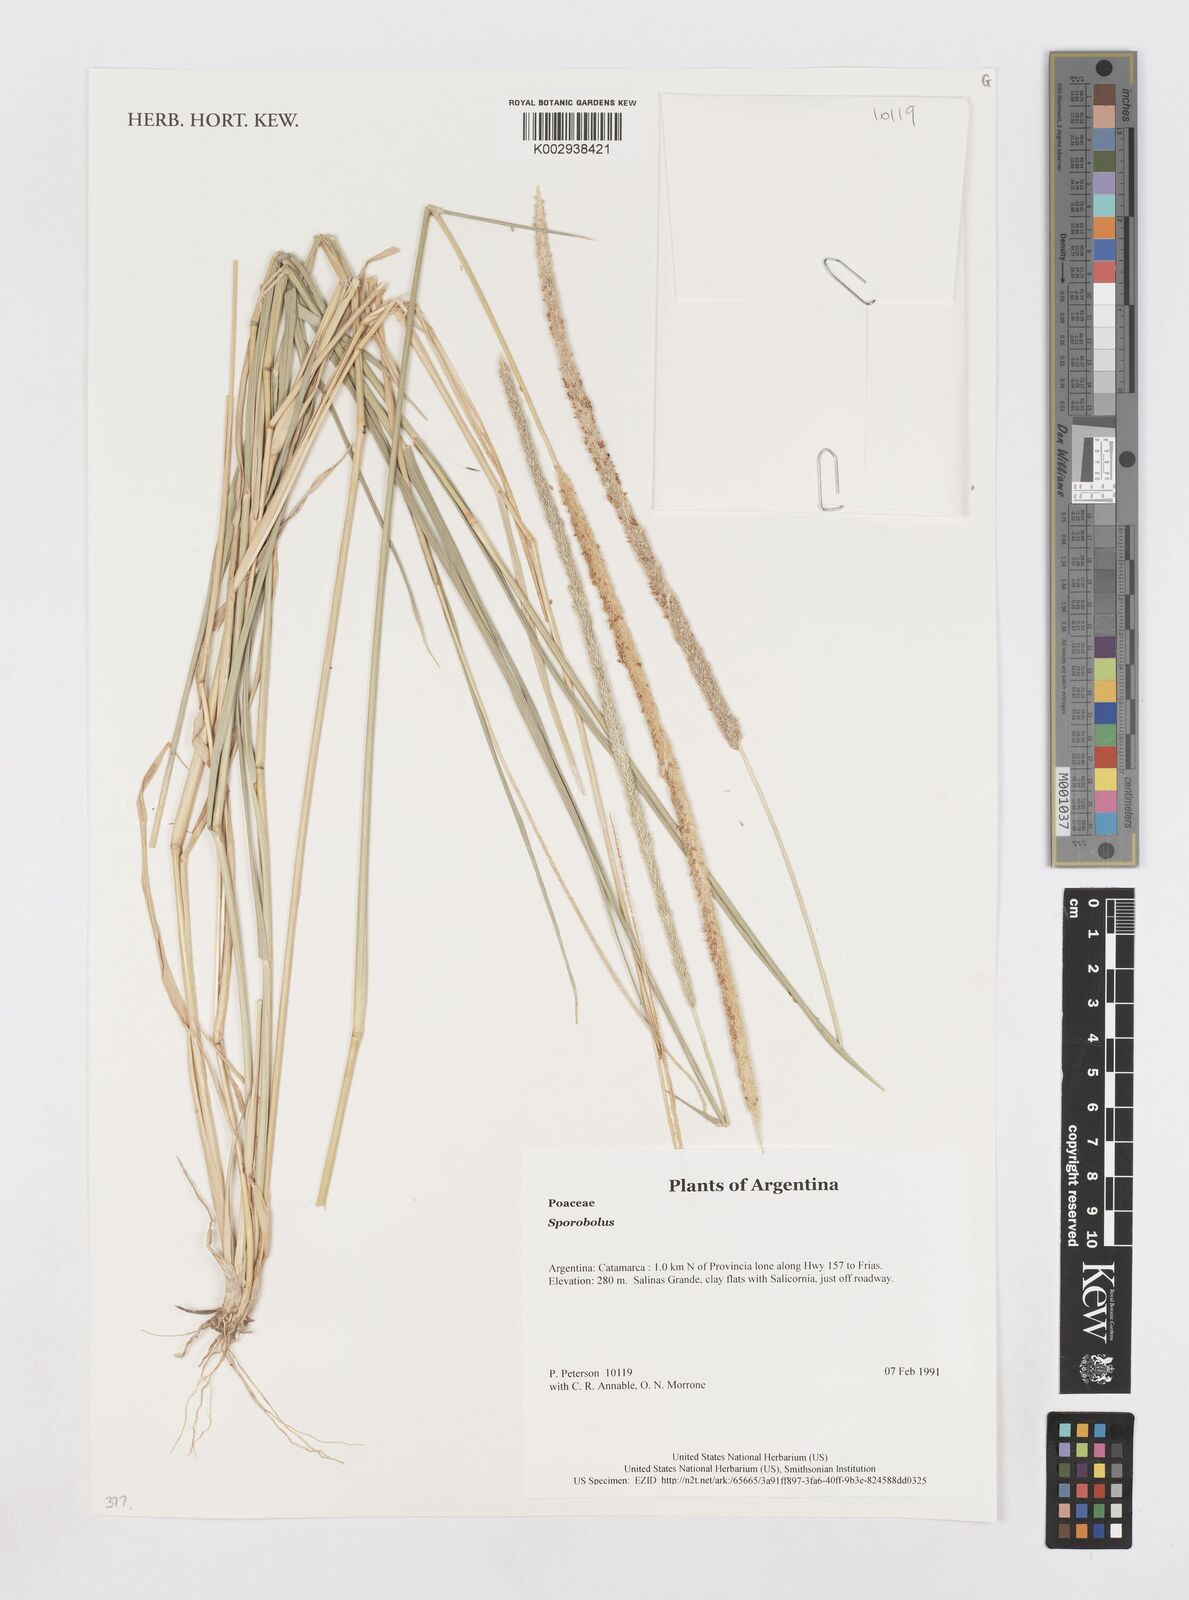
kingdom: Plantae
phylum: Tracheophyta
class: Liliopsida
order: Poales
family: Poaceae
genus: Sporobolus
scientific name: Sporobolus
